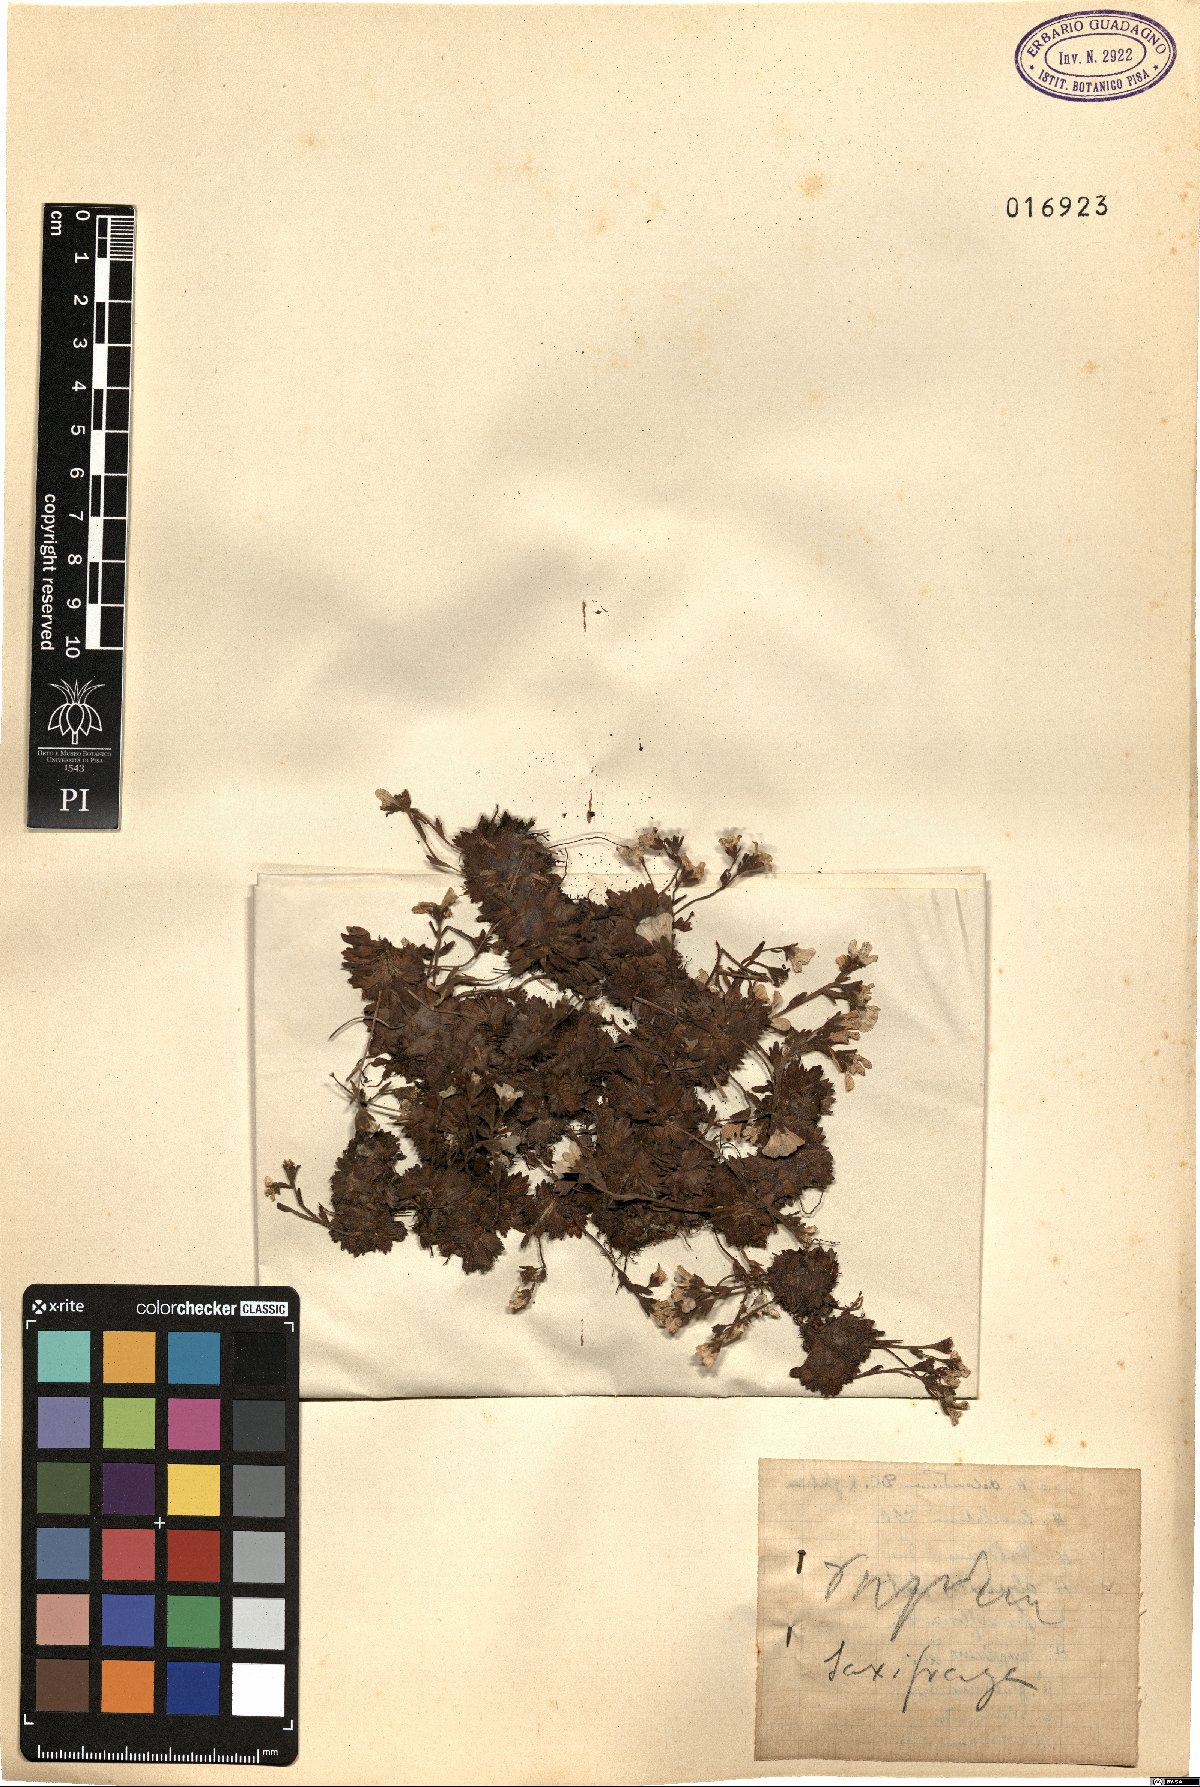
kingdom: Plantae
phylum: Tracheophyta
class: Magnoliopsida
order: Saxifragales
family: Saxifragaceae
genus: Saxifraga
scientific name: Saxifraga
